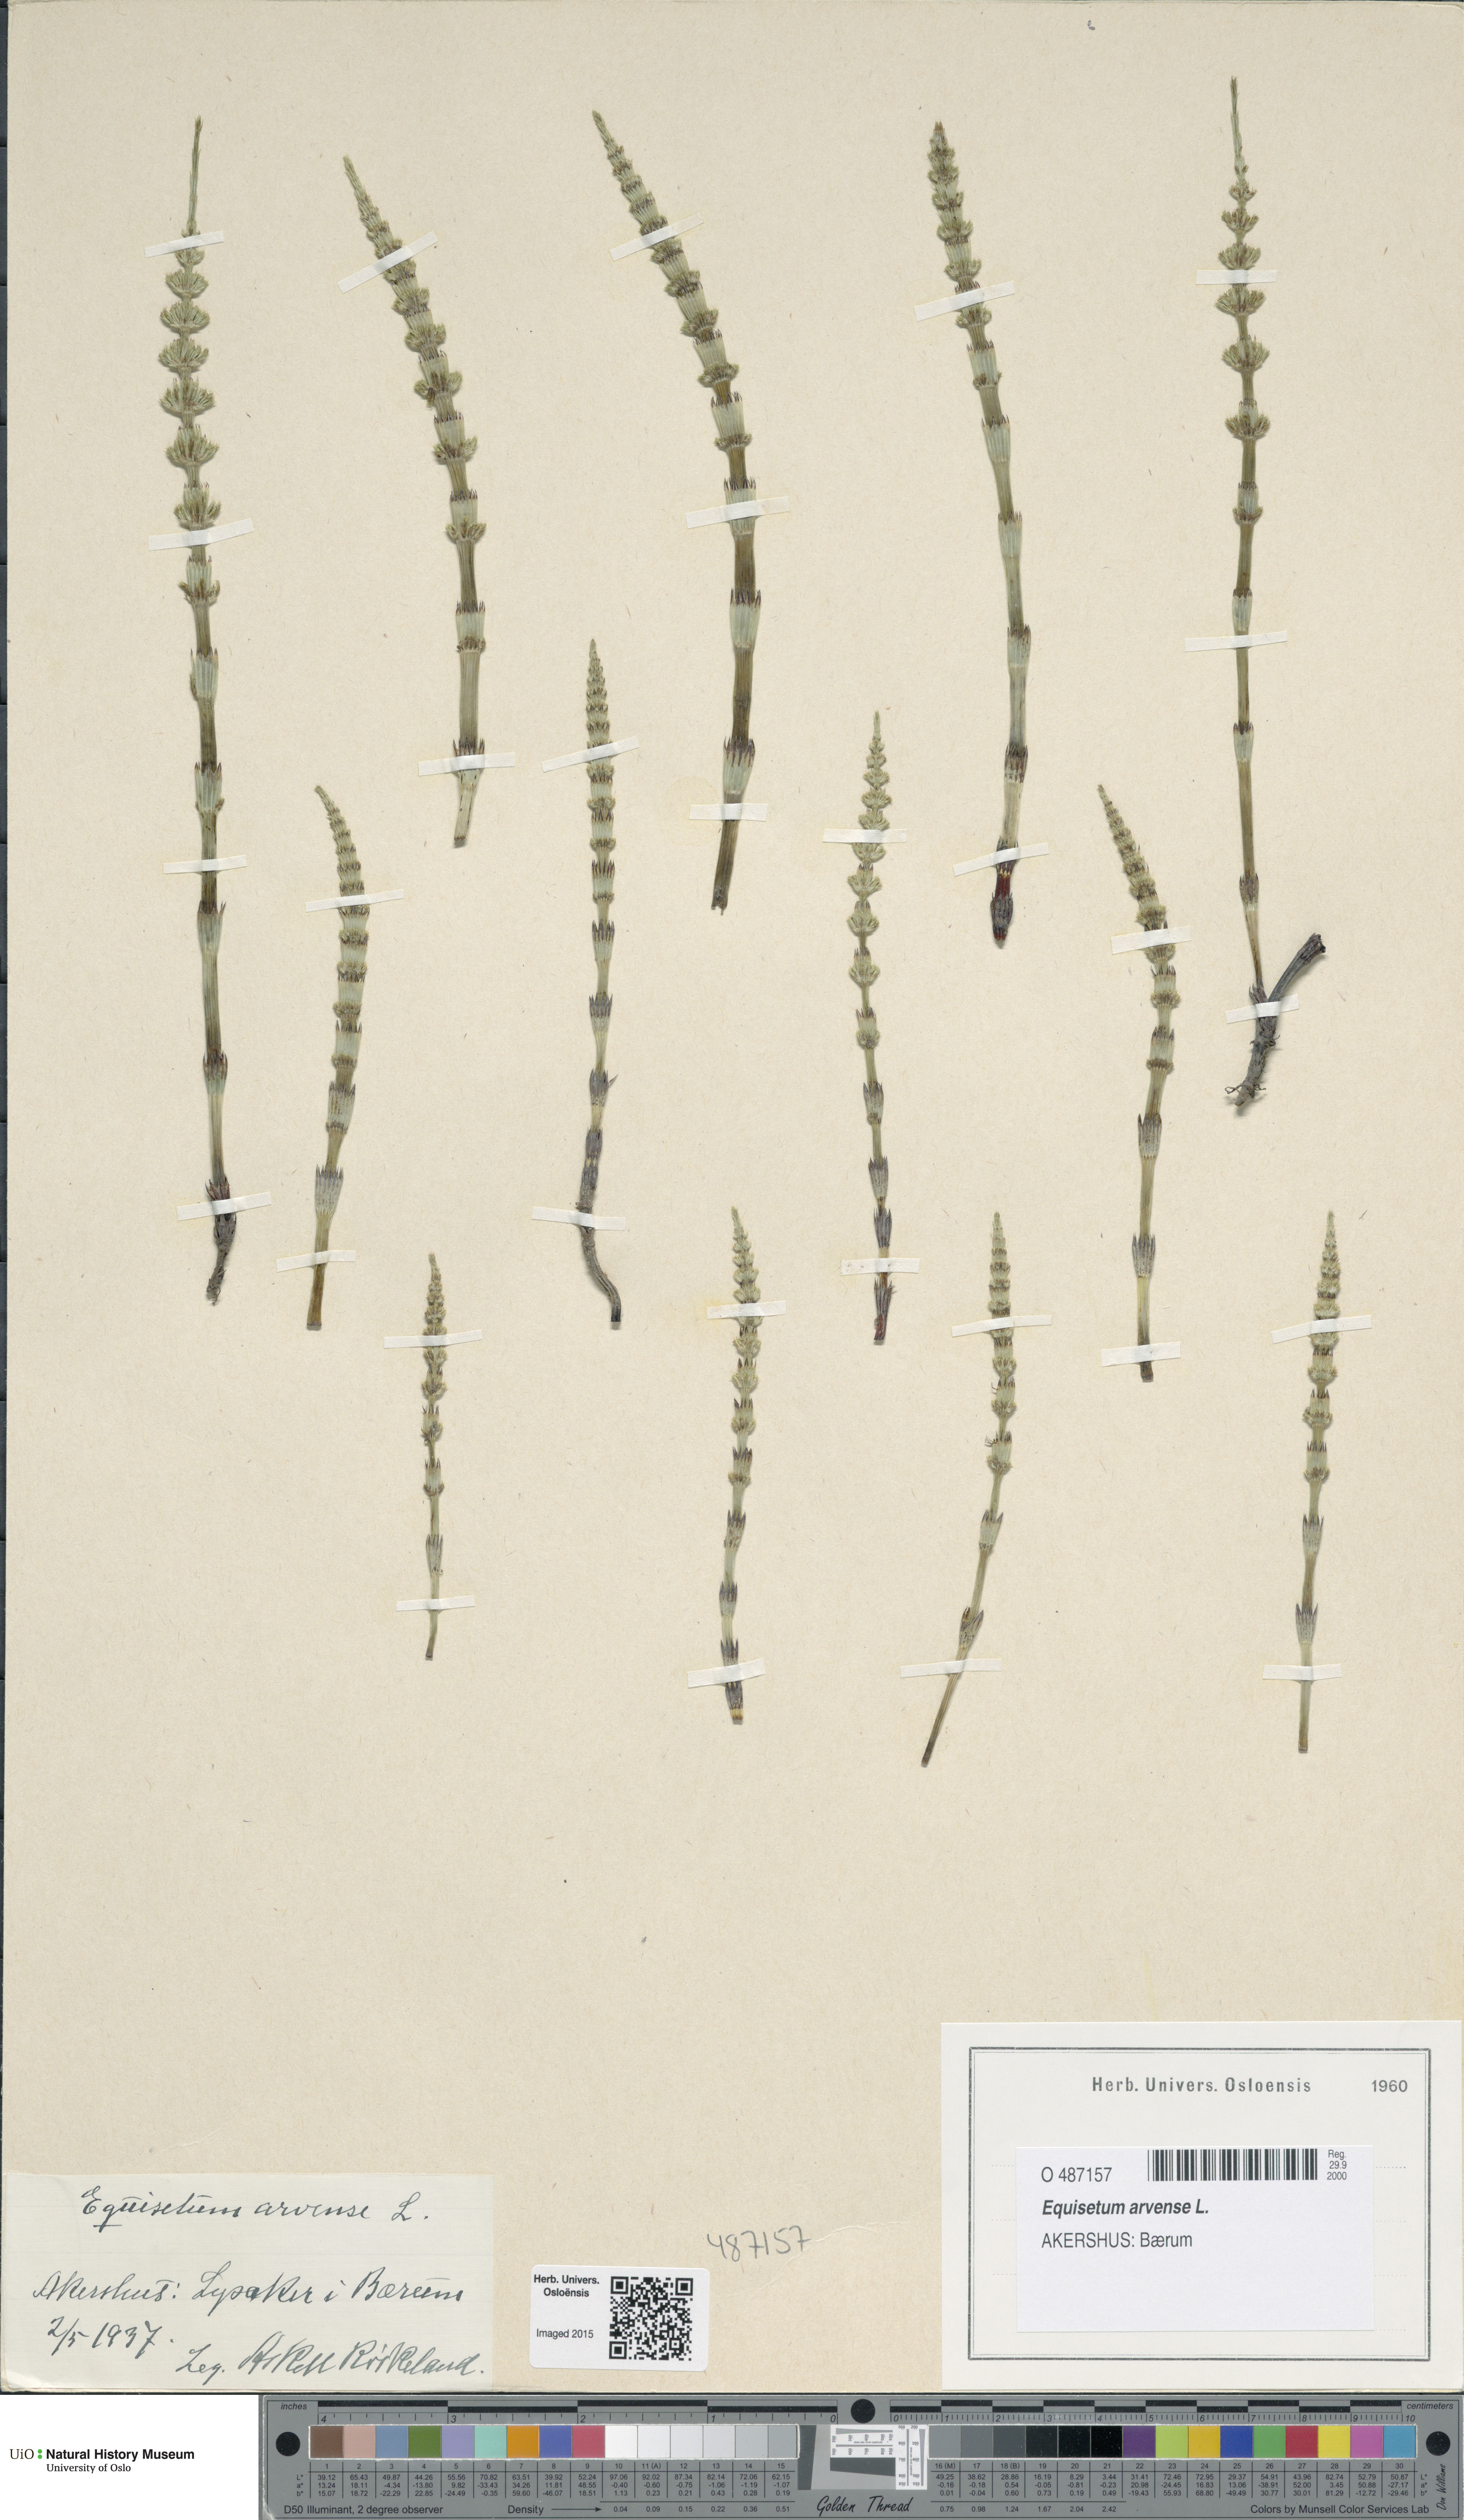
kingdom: Plantae
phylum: Tracheophyta
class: Polypodiopsida
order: Equisetales
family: Equisetaceae
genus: Equisetum
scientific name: Equisetum arvense
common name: Field horsetail
